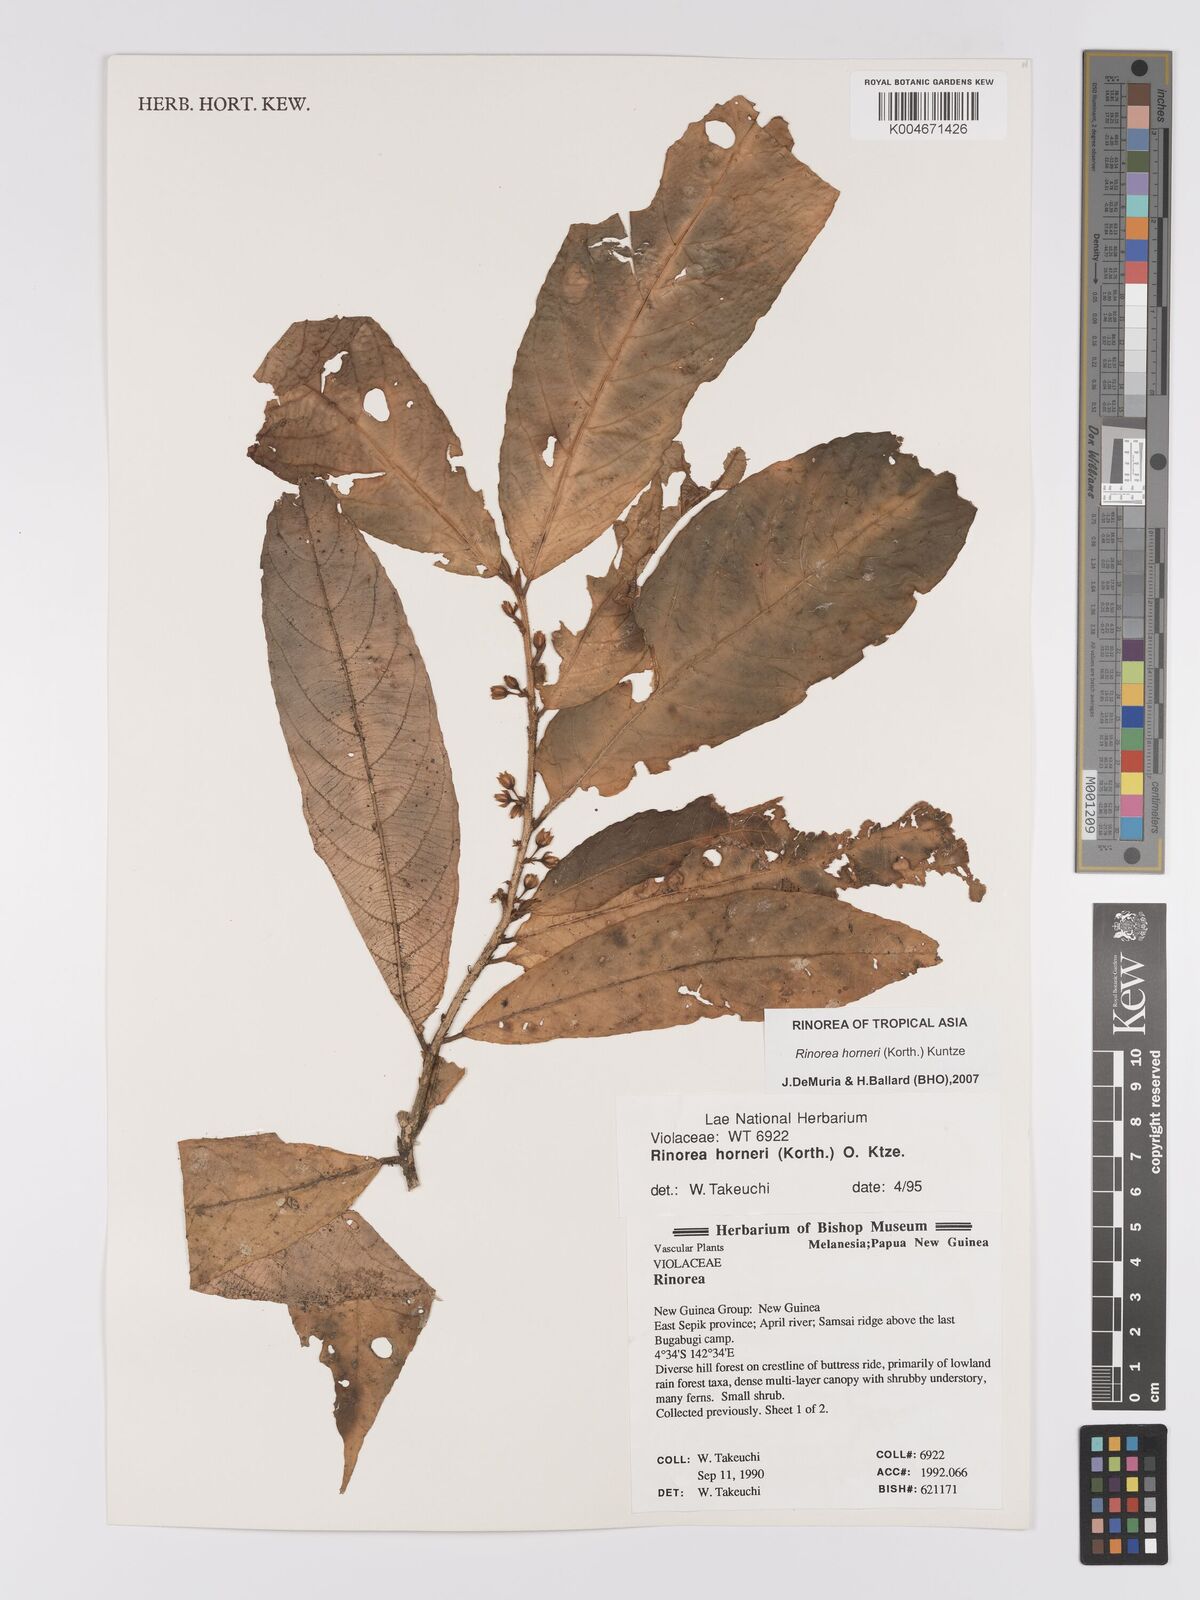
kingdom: Plantae
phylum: Tracheophyta
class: Magnoliopsida
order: Malpighiales
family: Violaceae
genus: Rinorea
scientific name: Rinorea horneri
